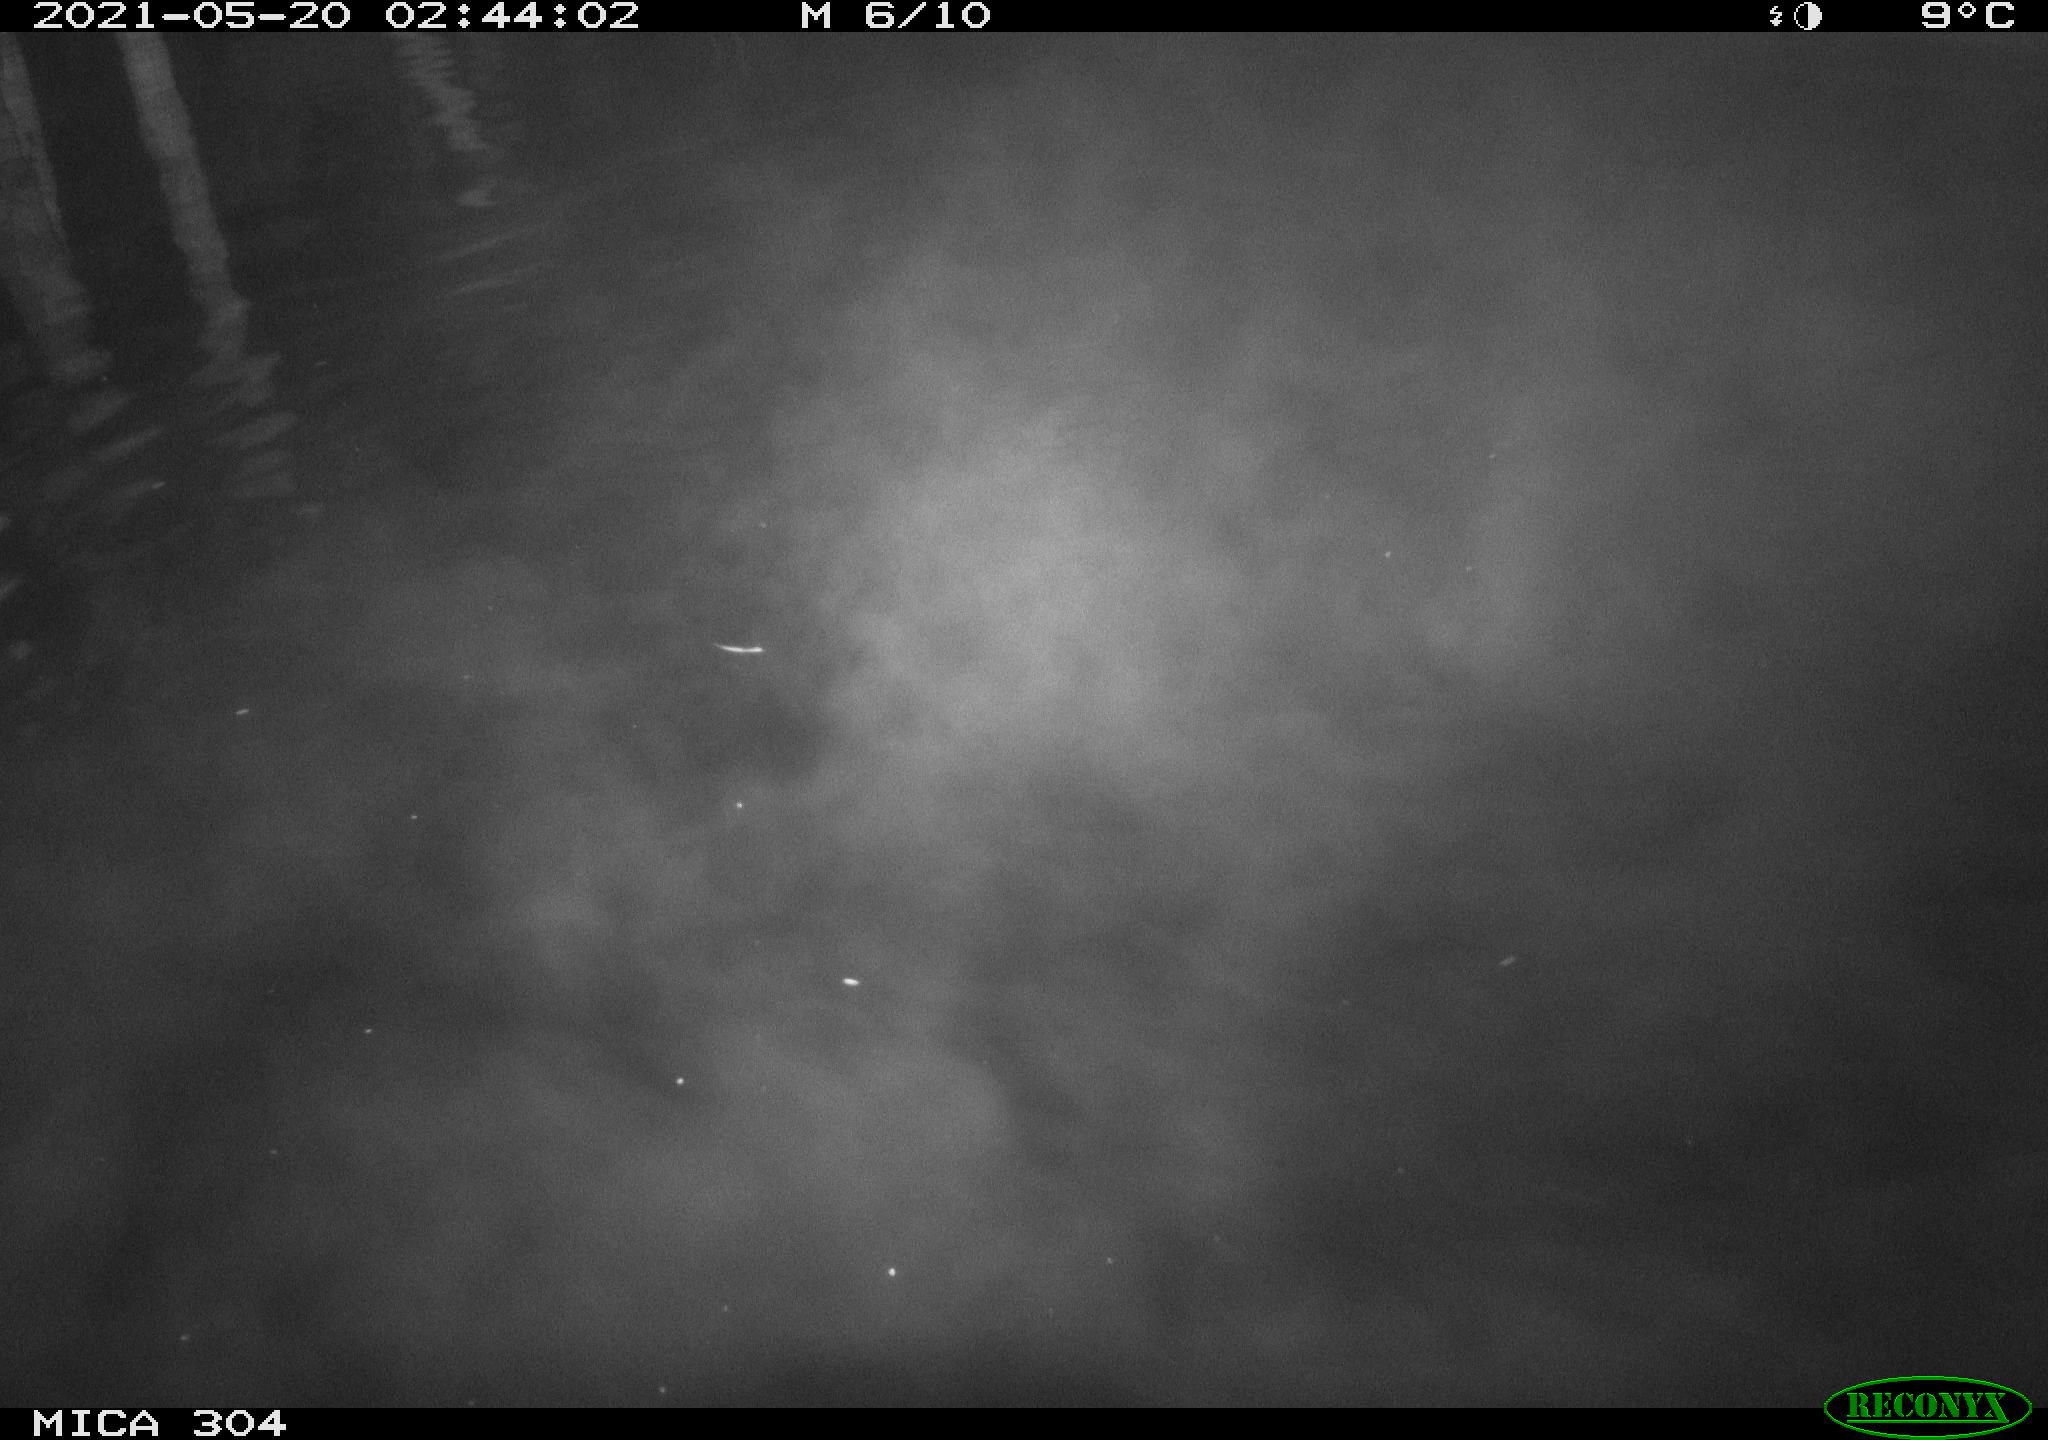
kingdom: Animalia
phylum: Chordata
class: Aves
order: Anseriformes
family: Anatidae
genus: Anas
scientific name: Anas platyrhynchos
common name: Mallard
